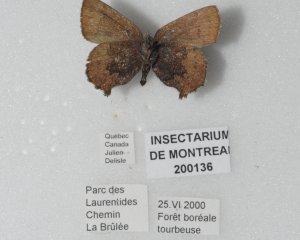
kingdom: Animalia
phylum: Arthropoda
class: Insecta
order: Lepidoptera
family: Lycaenidae
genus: Incisalia
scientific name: Incisalia irioides
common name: Brown Elfin
